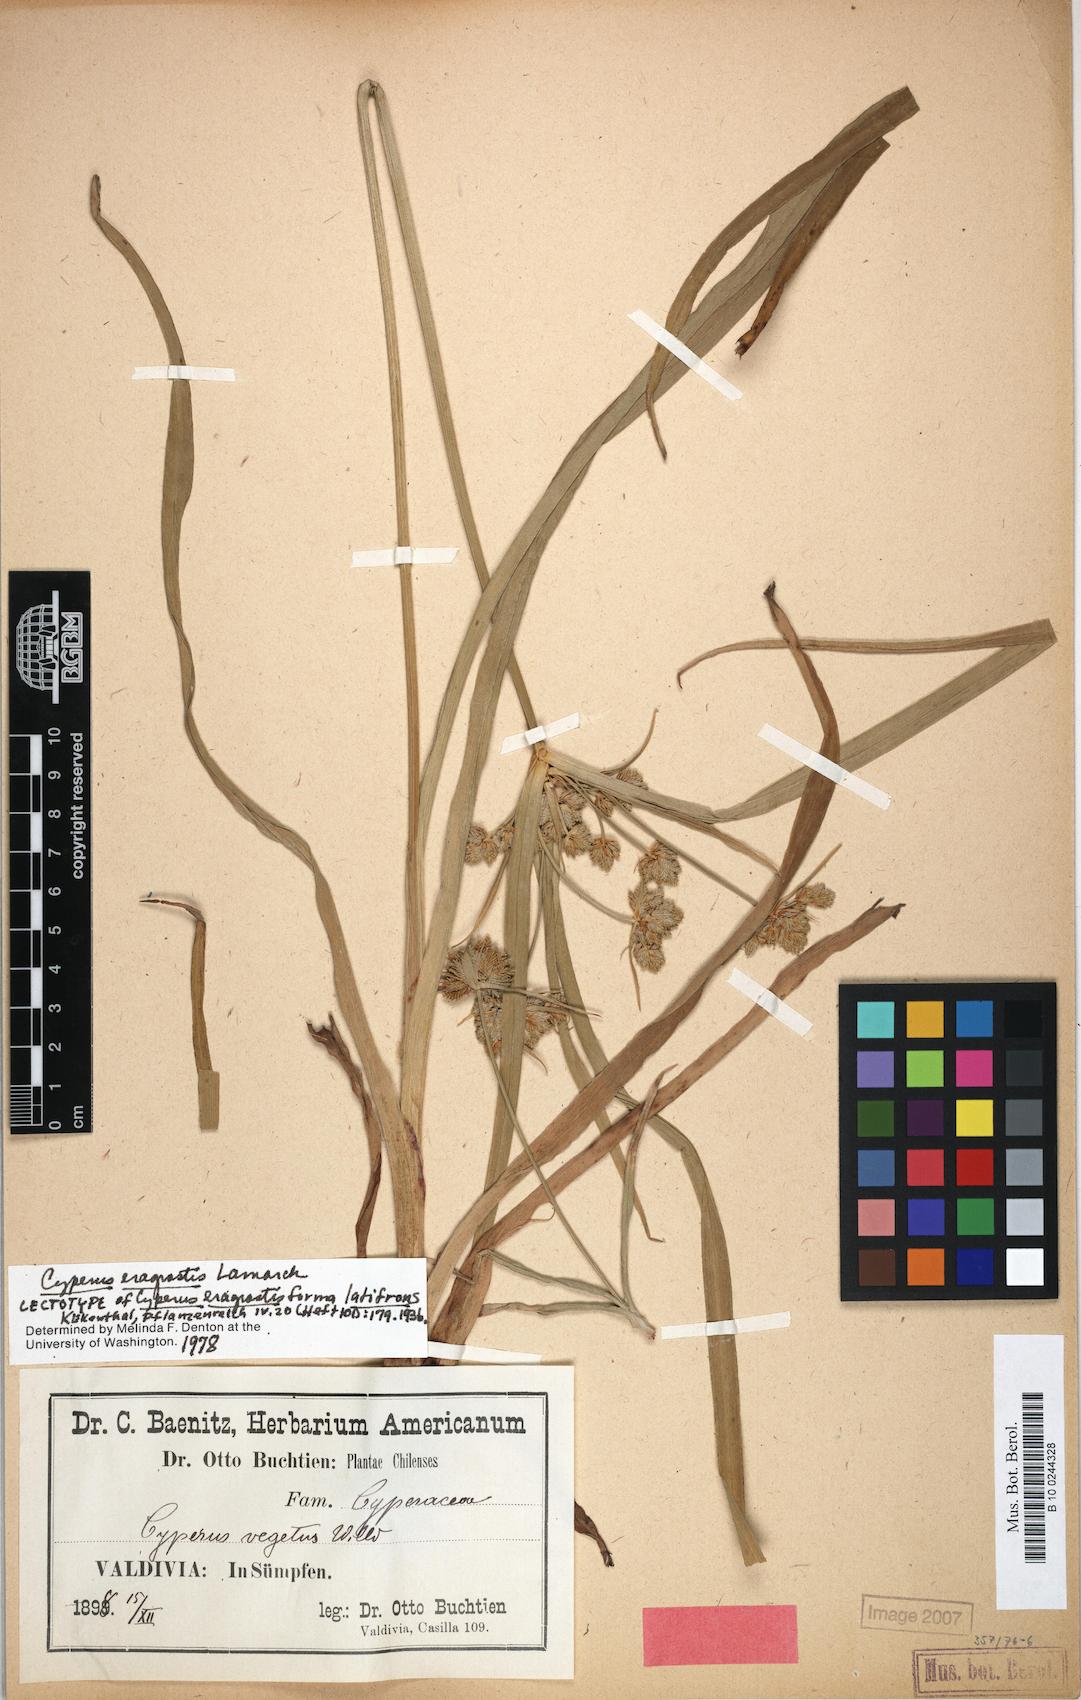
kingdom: Plantae
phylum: Tracheophyta
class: Liliopsida
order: Poales
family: Cyperaceae
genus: Cyperus
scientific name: Cyperus eragrostis
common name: Tall flatsedge
